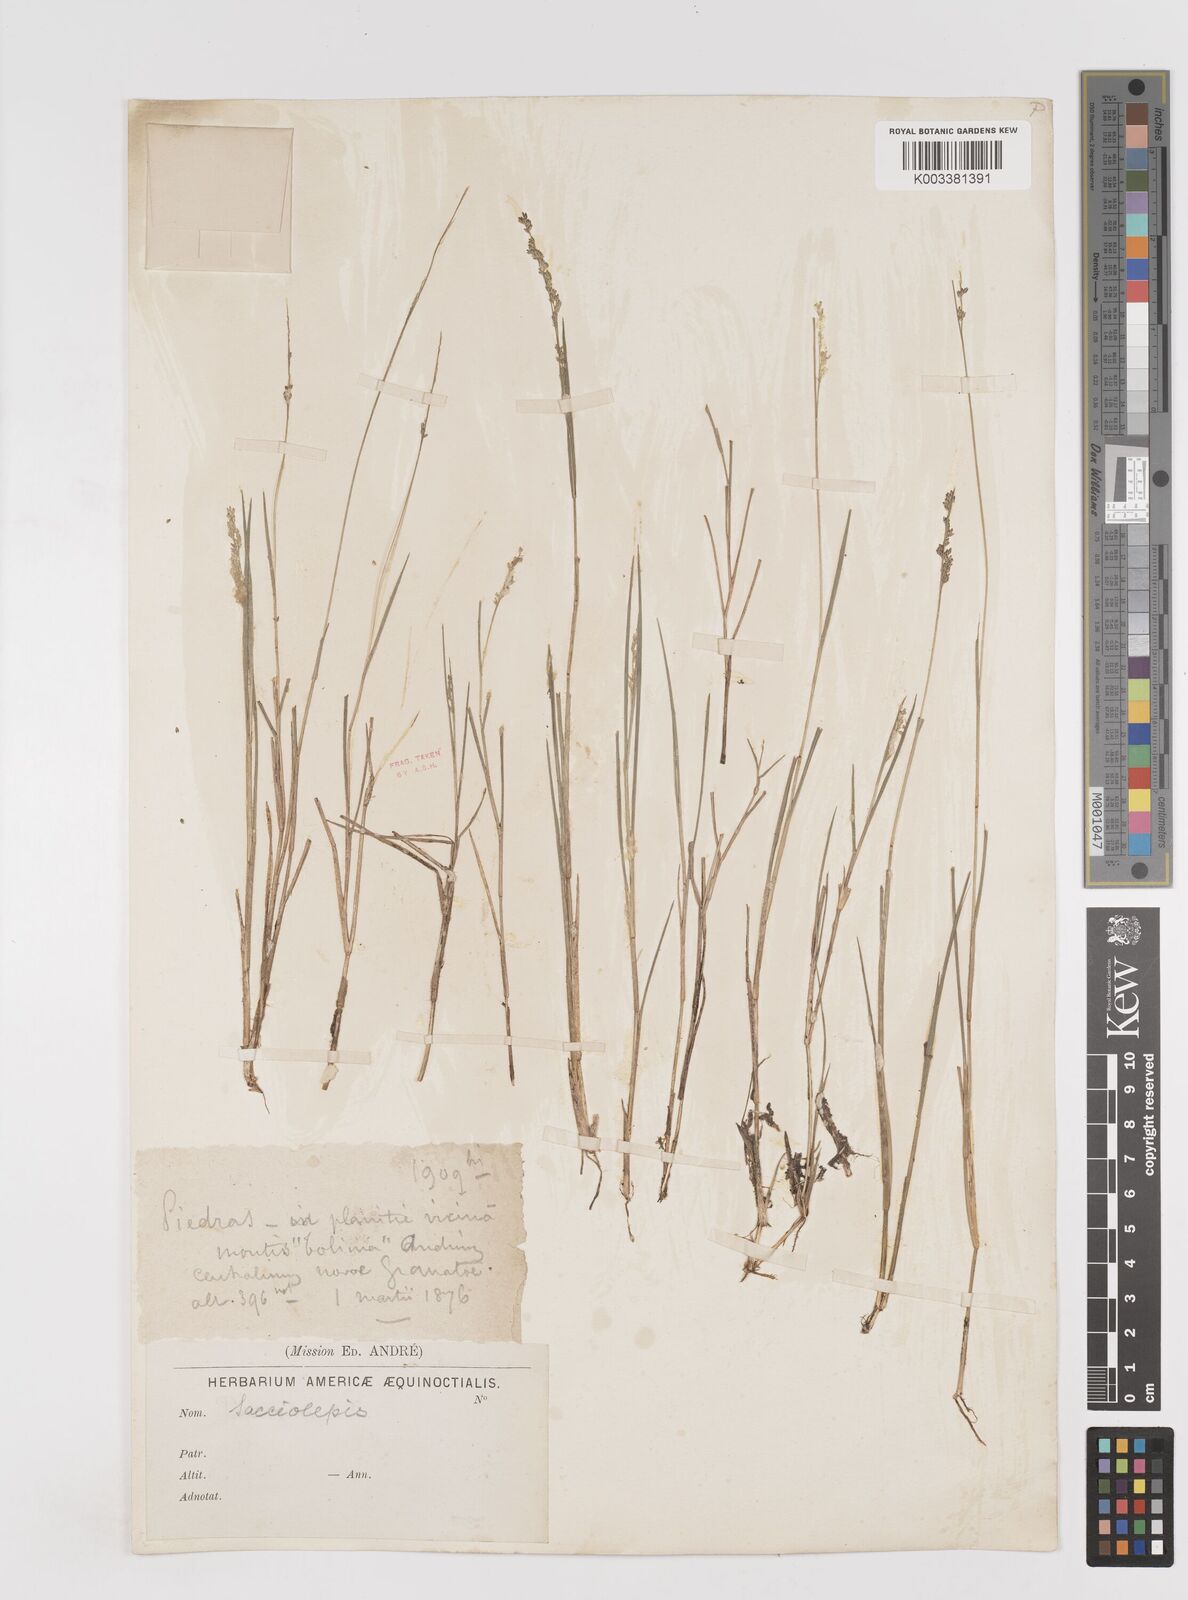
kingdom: Plantae
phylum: Tracheophyta
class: Liliopsida
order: Poales
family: Poaceae
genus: Sacciolepis
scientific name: Sacciolepis
